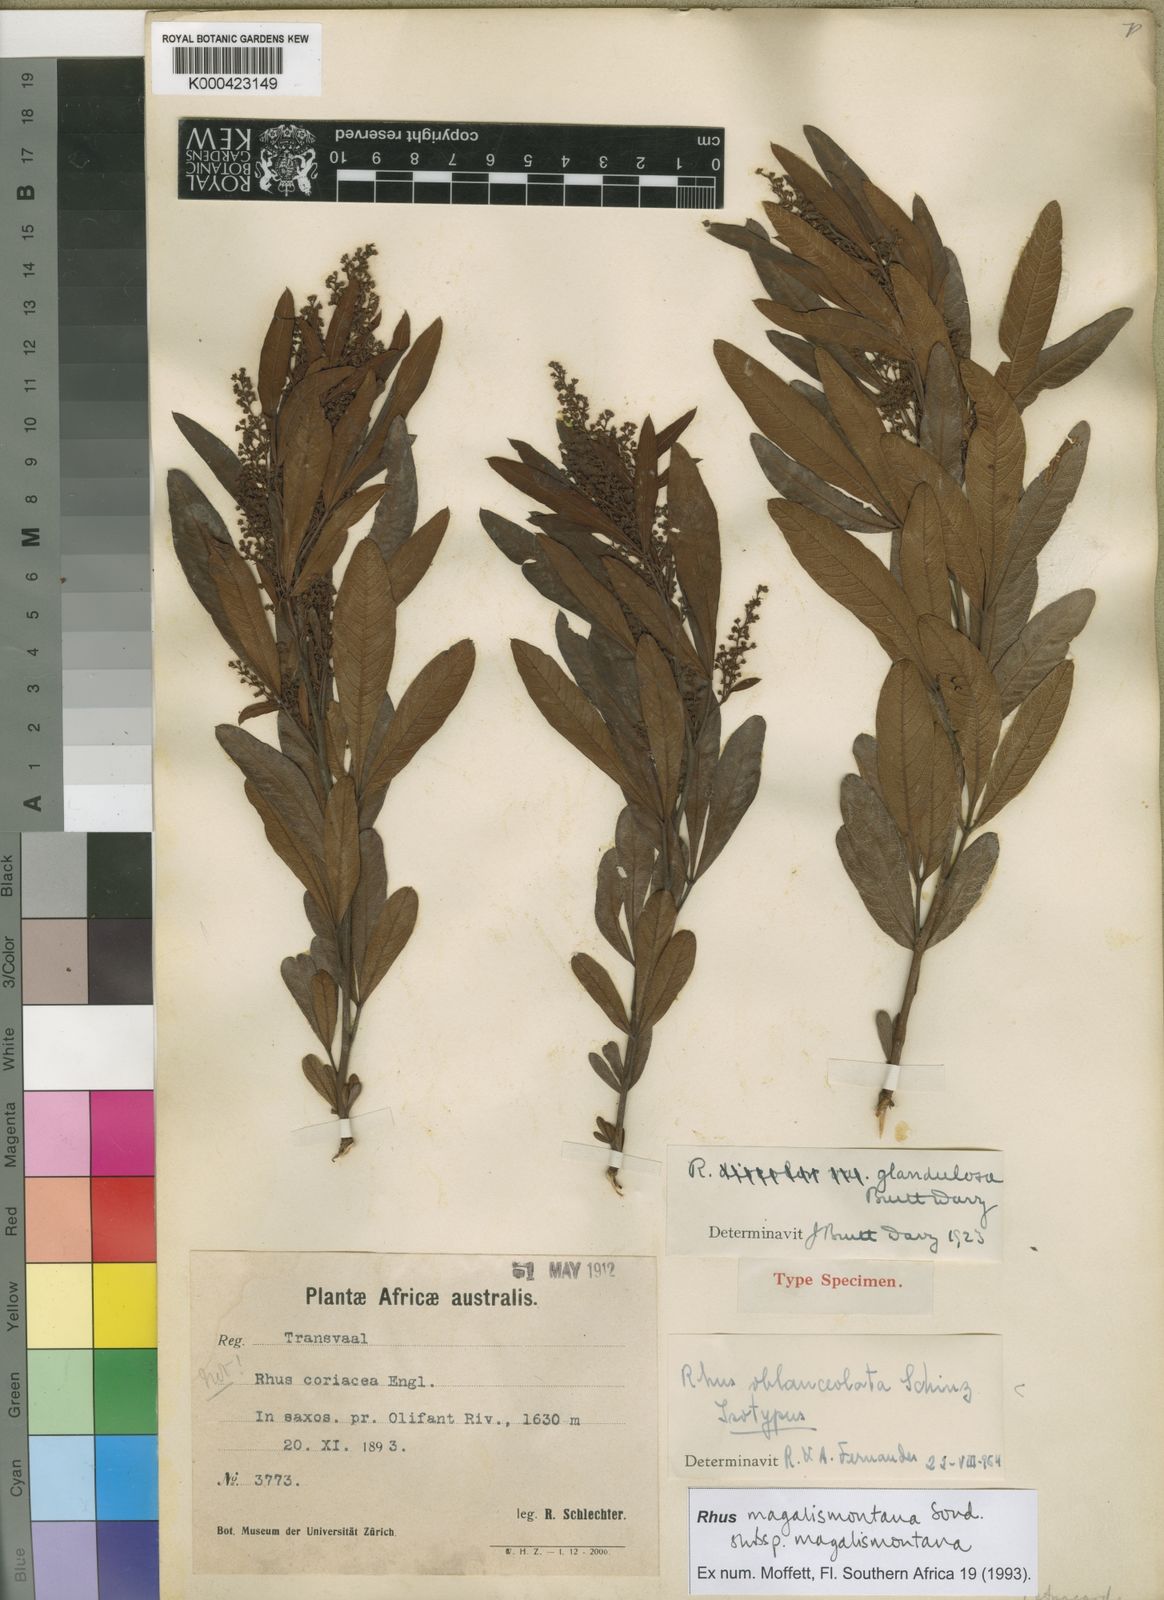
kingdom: Plantae
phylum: Tracheophyta
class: Magnoliopsida
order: Sapindales
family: Anacardiaceae
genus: Searsia
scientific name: Searsia magalismontana
